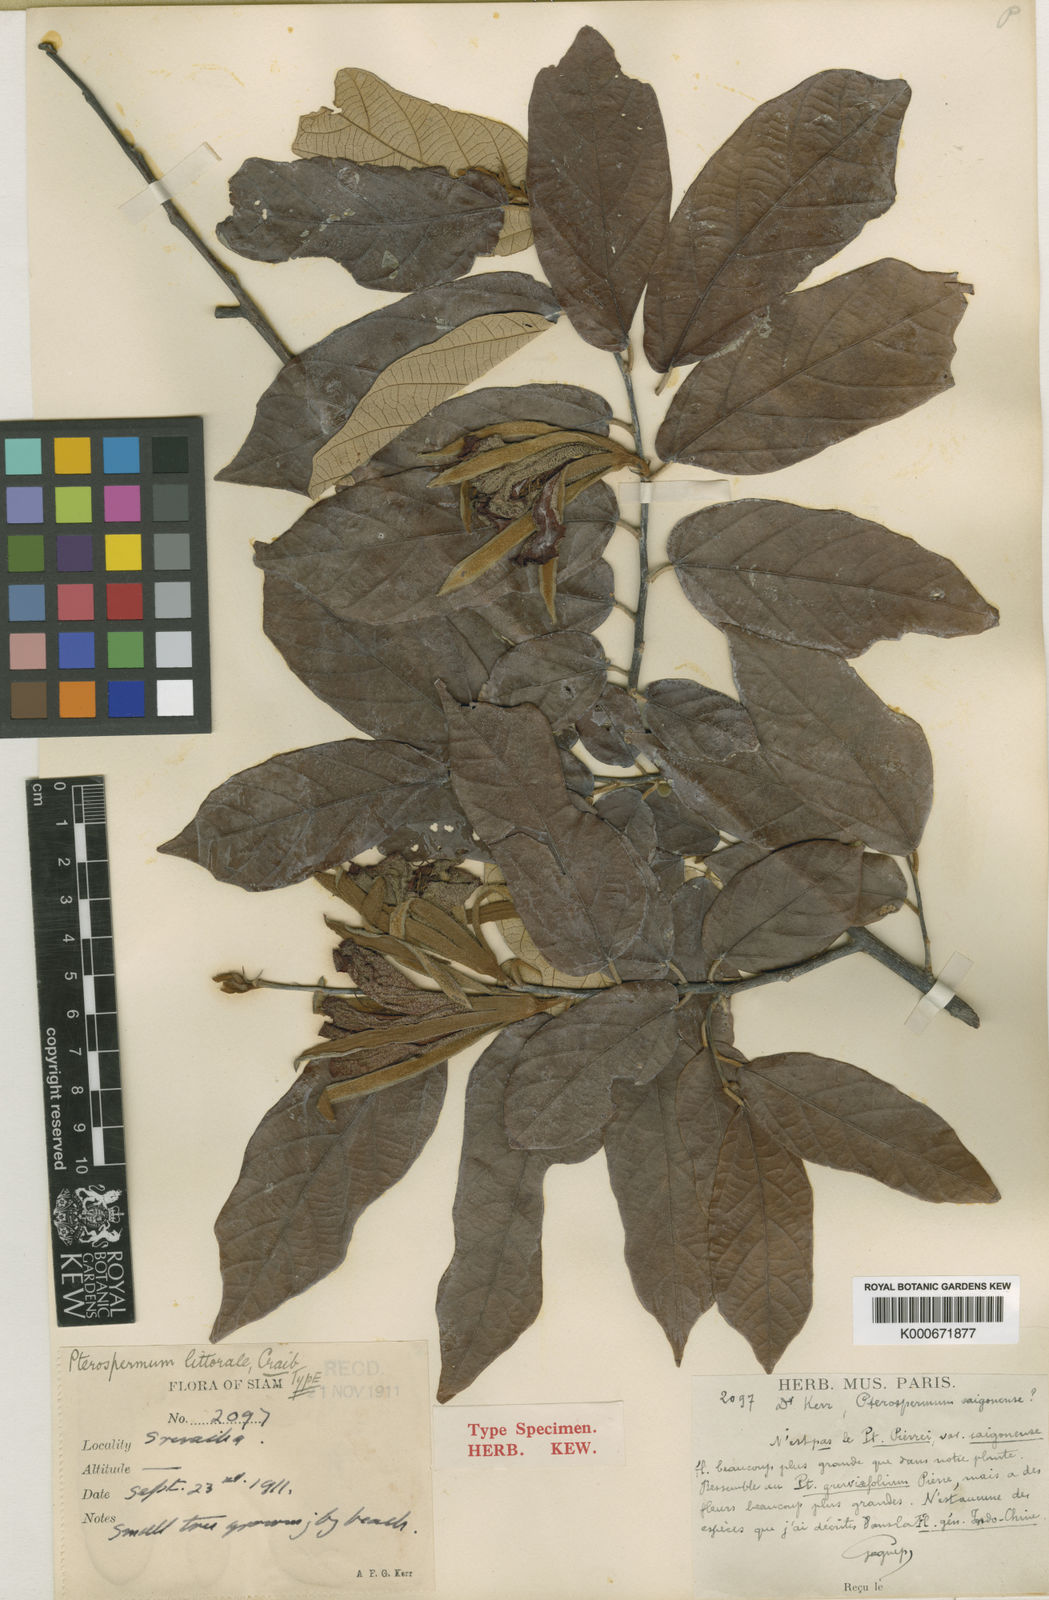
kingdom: Plantae
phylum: Tracheophyta
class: Magnoliopsida
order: Malvales
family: Malvaceae
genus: Pterospermum
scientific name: Pterospermum littorale
